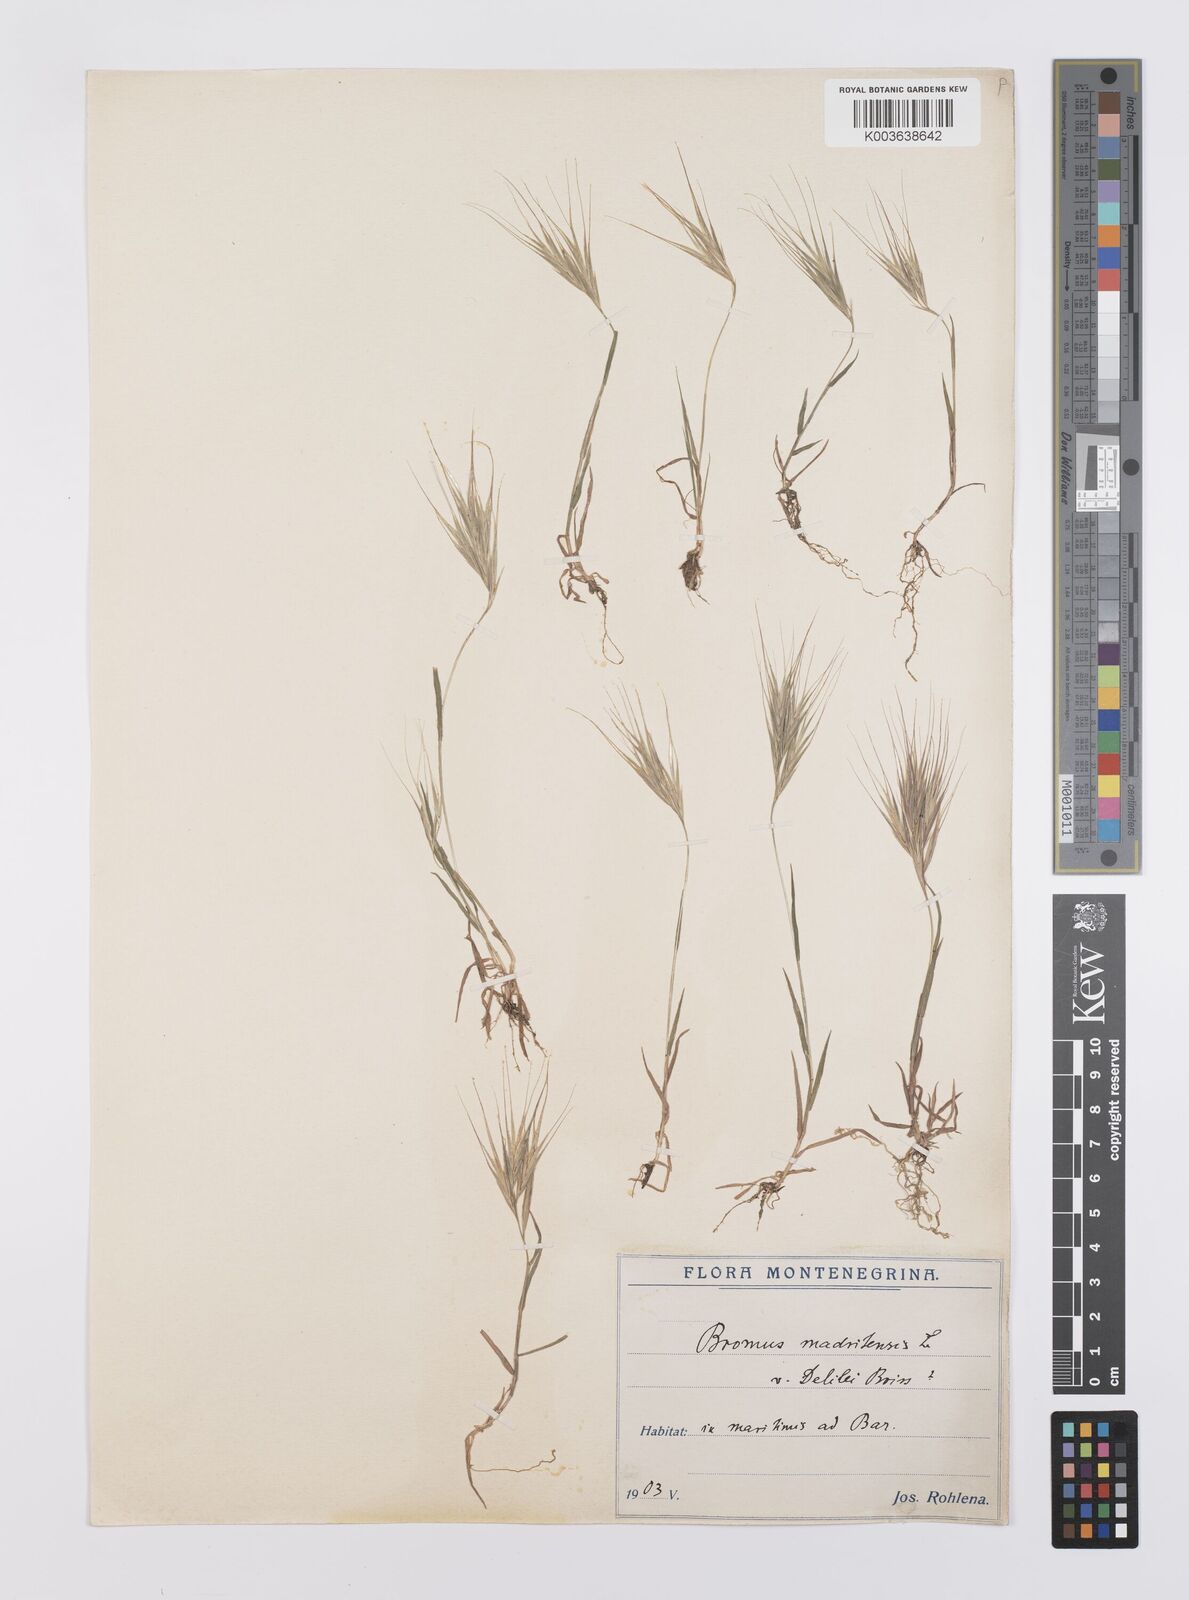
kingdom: Plantae
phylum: Tracheophyta
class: Liliopsida
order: Poales
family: Poaceae
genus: Bromus
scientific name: Bromus madritensis
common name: Compact brome
